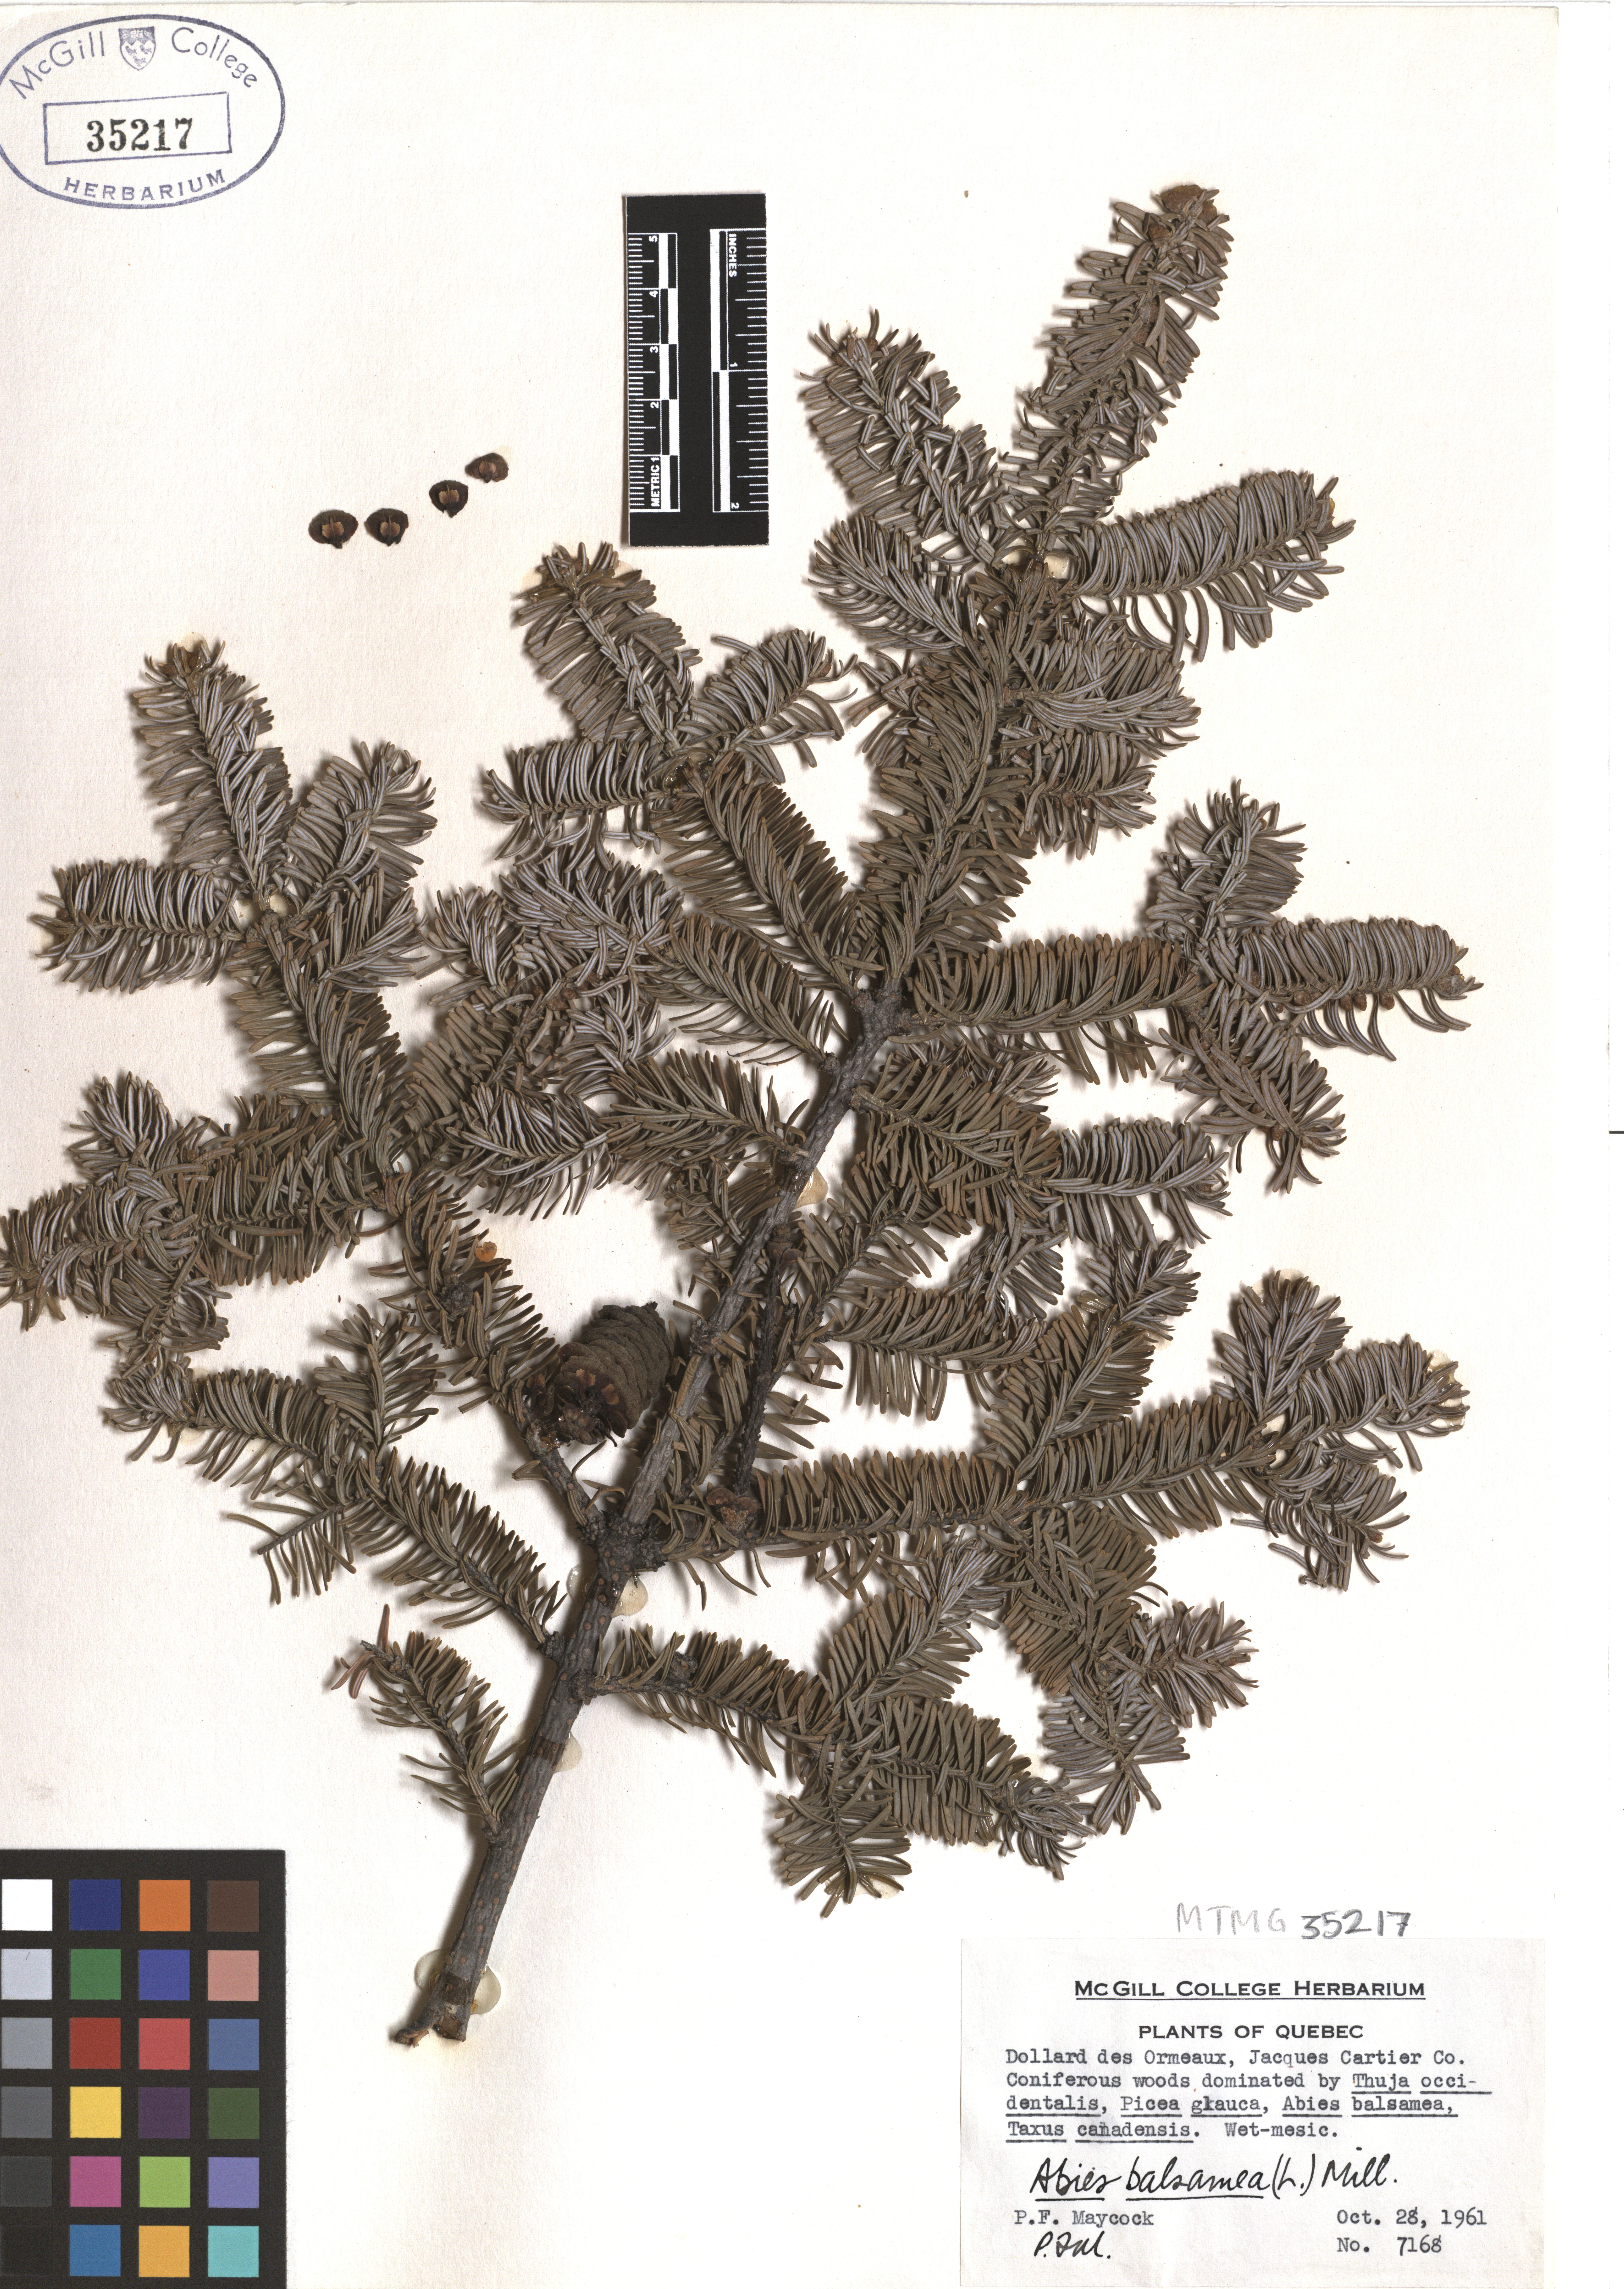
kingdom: Plantae
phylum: Tracheophyta
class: Pinopsida
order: Pinales
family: Pinaceae
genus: Abies
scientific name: Abies balsamea
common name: Balsam fir
